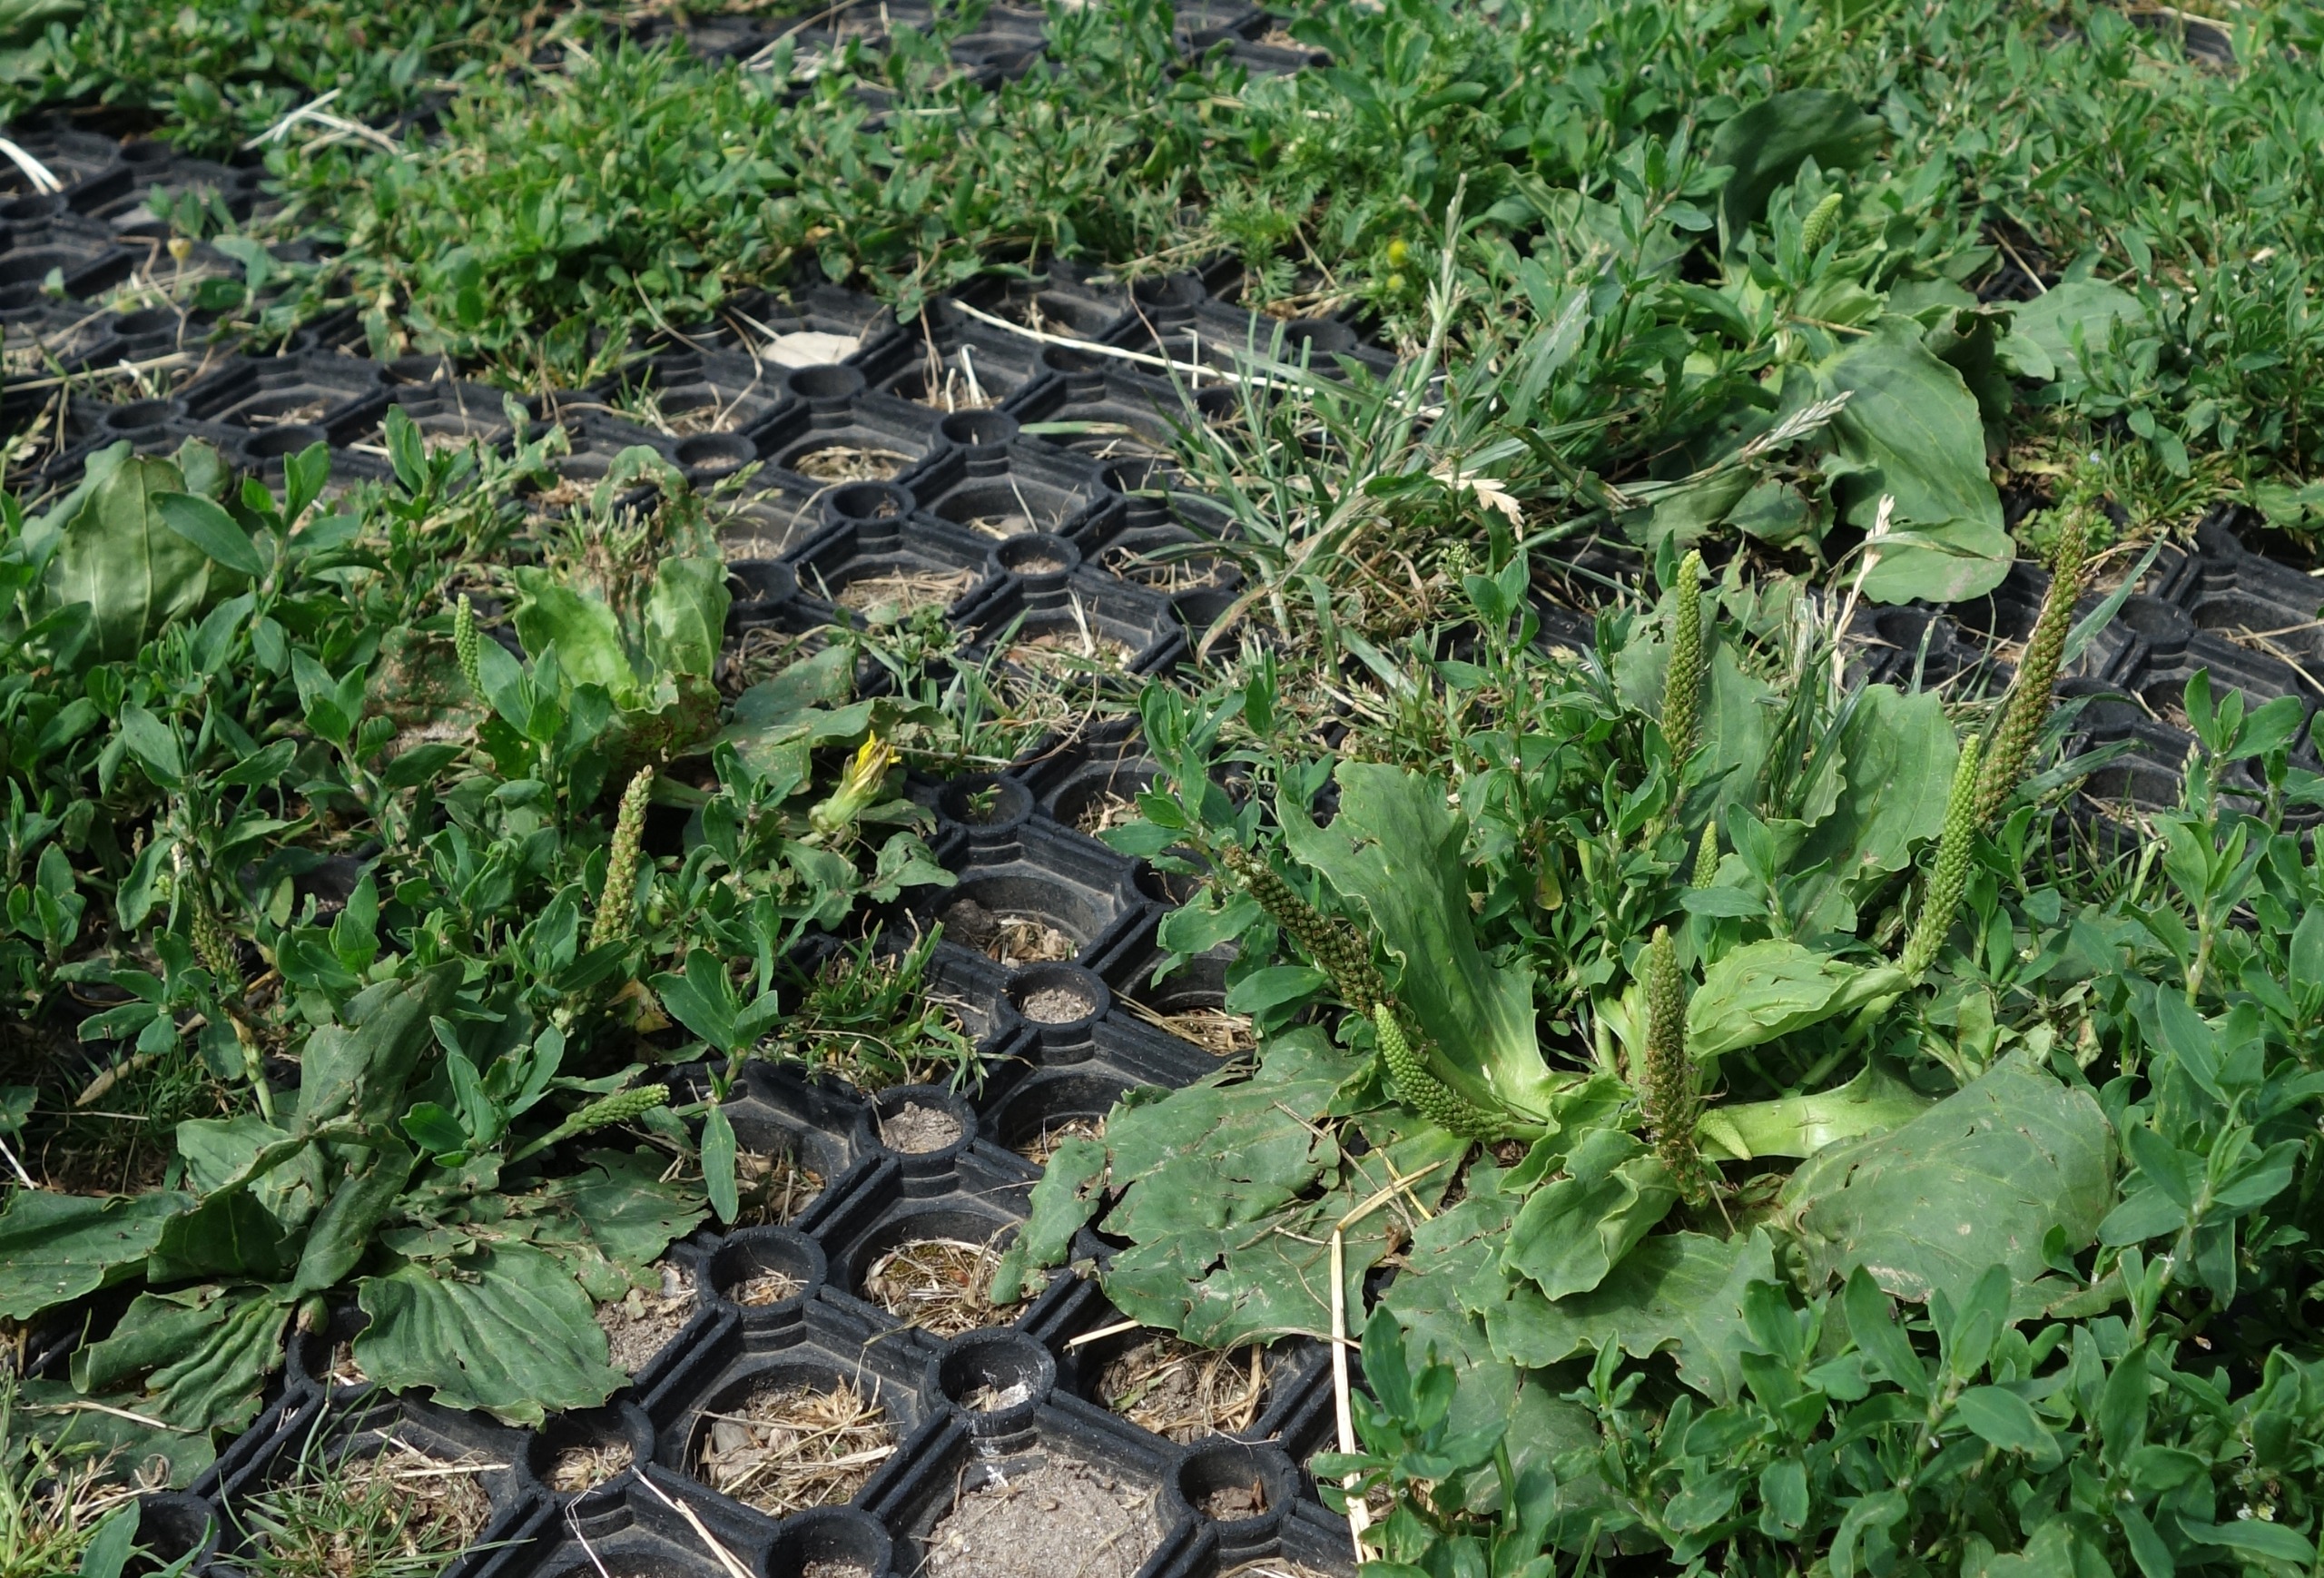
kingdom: Plantae
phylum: Tracheophyta
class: Magnoliopsida
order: Lamiales
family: Plantaginaceae
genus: Plantago
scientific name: Plantago major
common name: Glat vejbred
